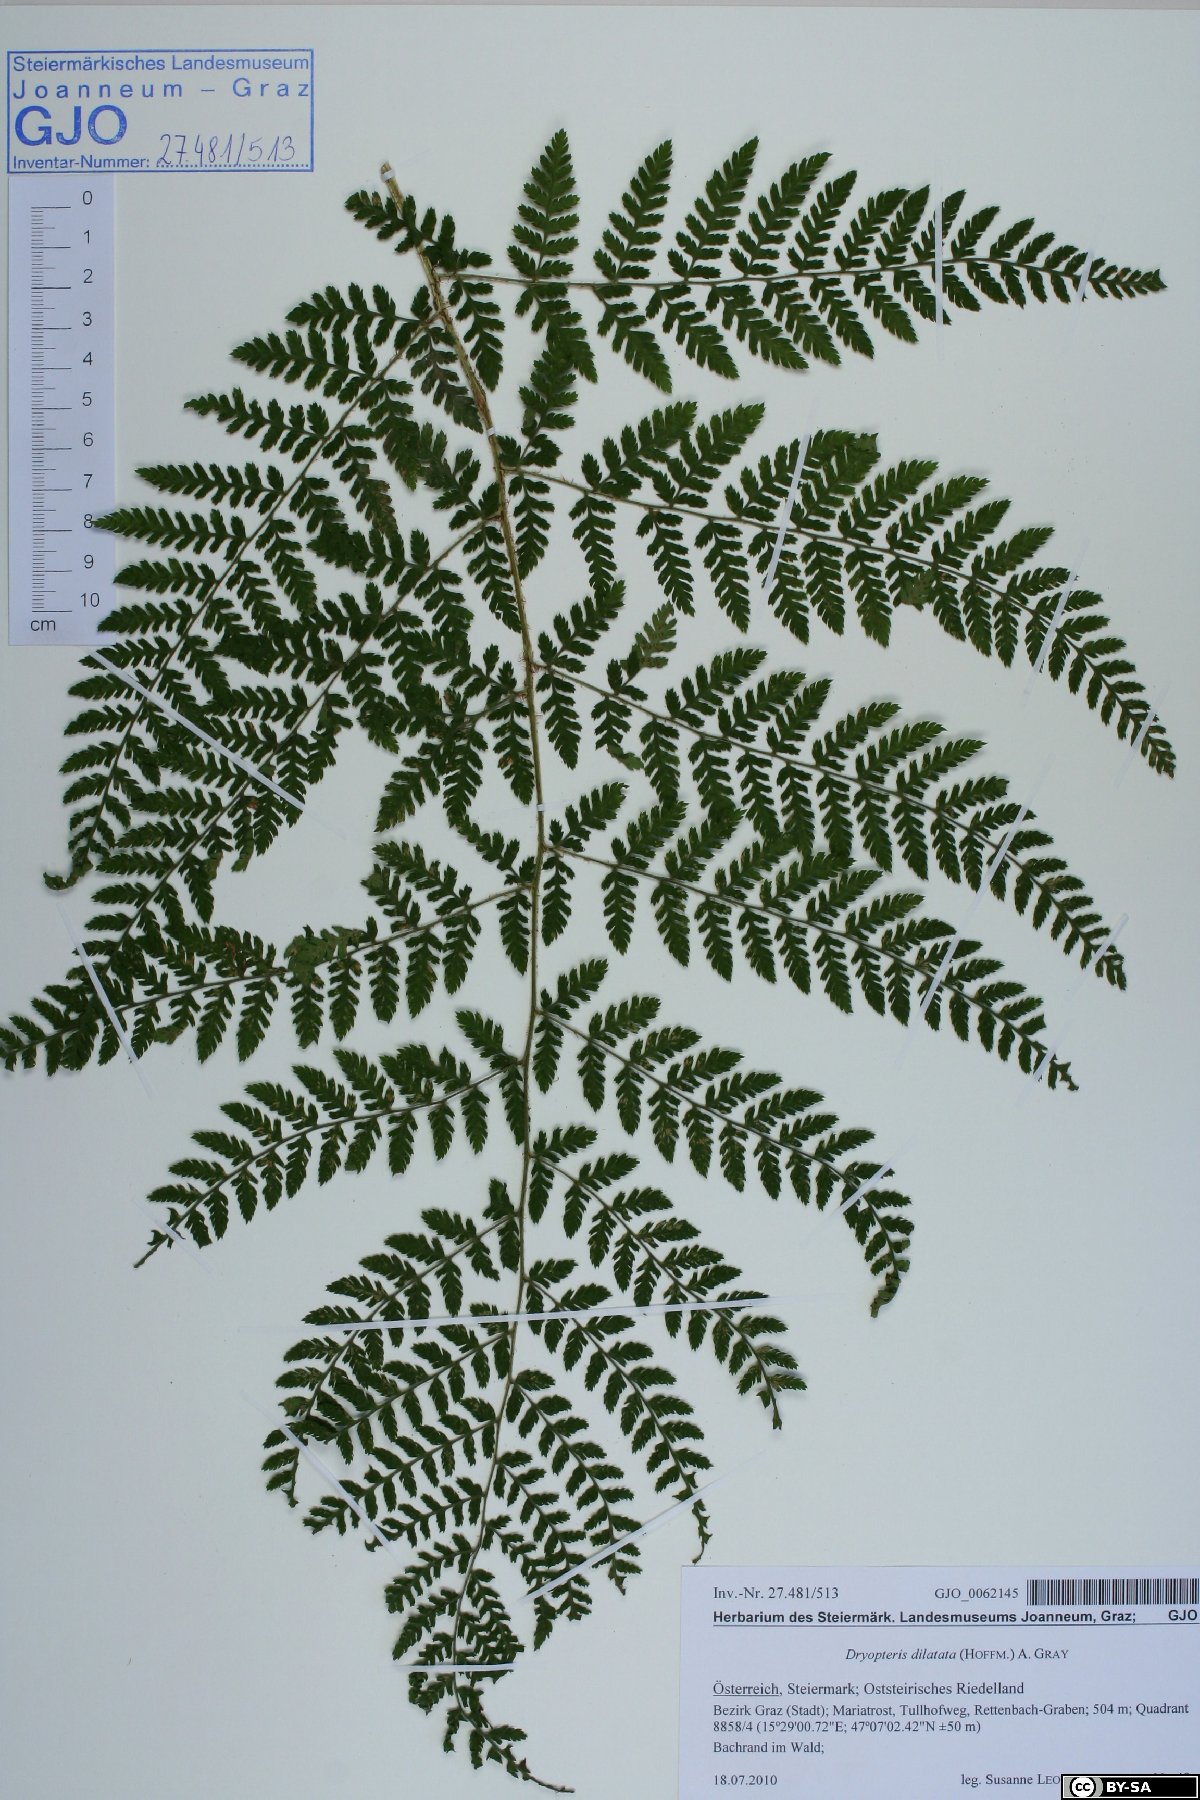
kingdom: Plantae
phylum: Tracheophyta
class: Polypodiopsida
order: Polypodiales
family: Dryopteridaceae
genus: Dryopteris
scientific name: Dryopteris dilatata
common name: Broad buckler-fern
